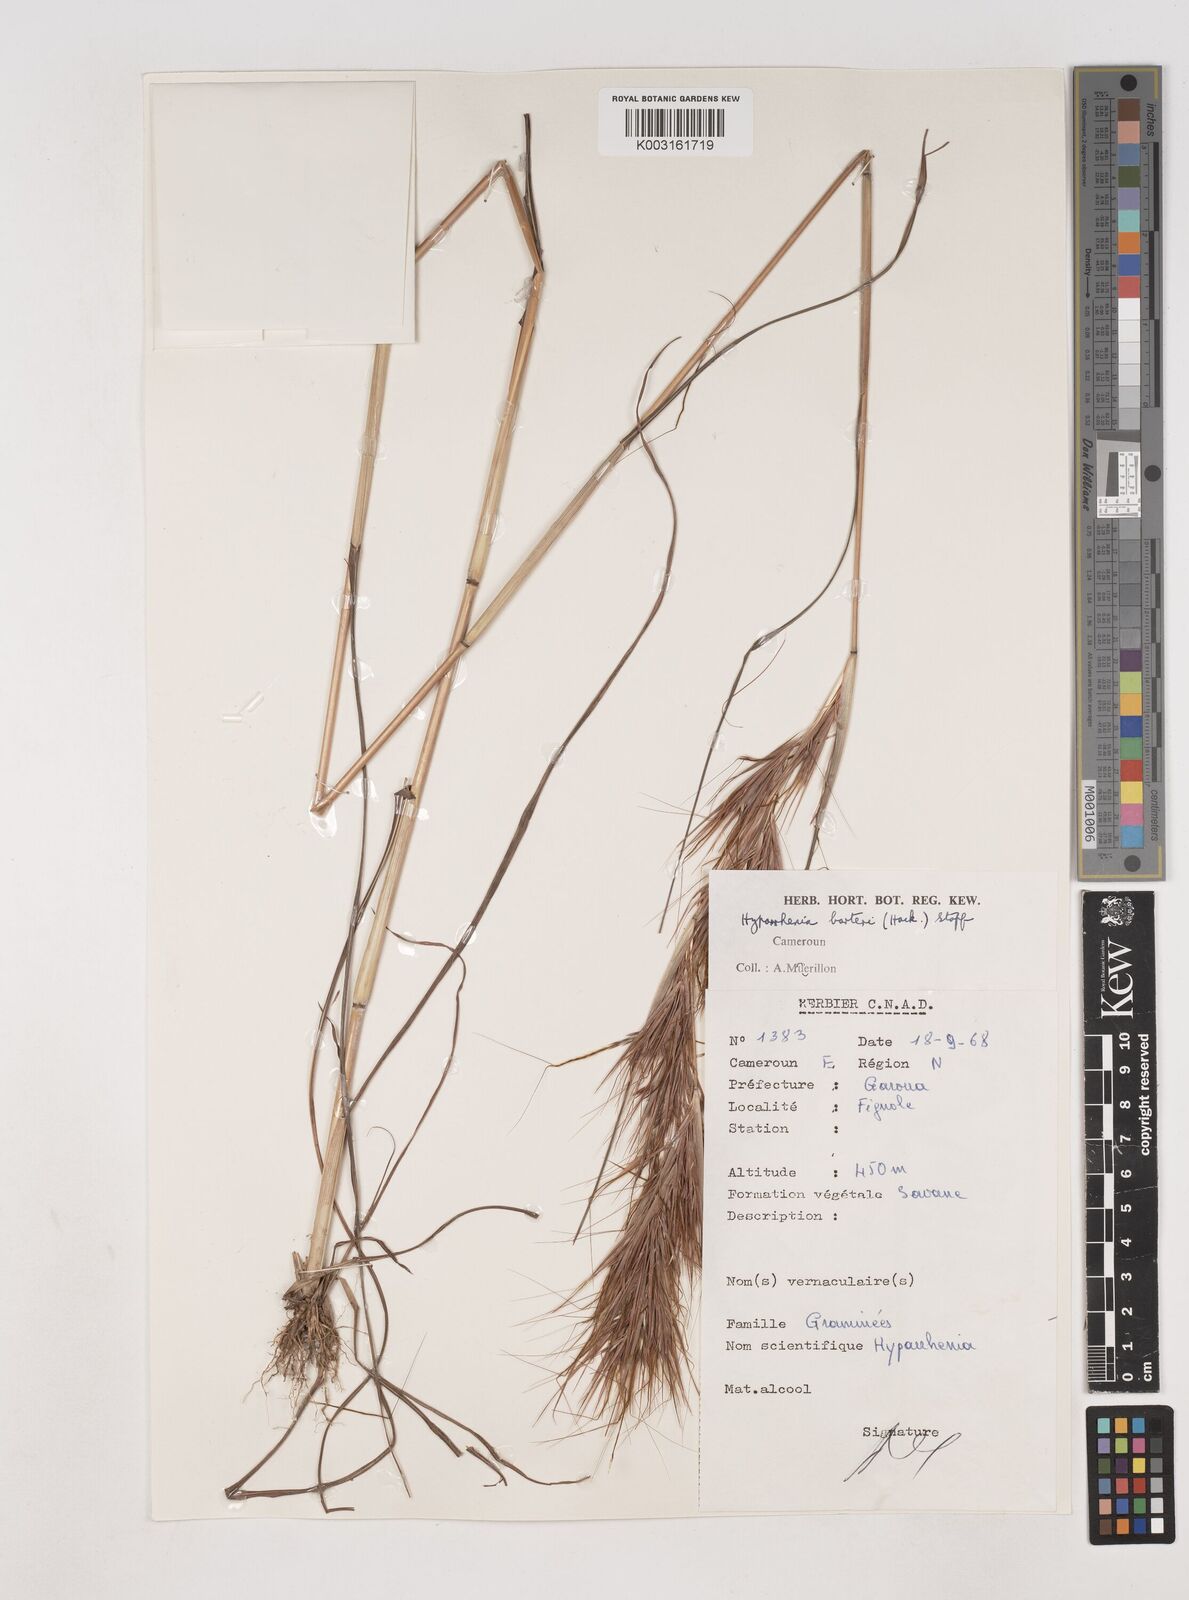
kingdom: Plantae
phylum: Tracheophyta
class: Liliopsida
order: Poales
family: Poaceae
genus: Hyparrhenia
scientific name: Hyparrhenia barteri
